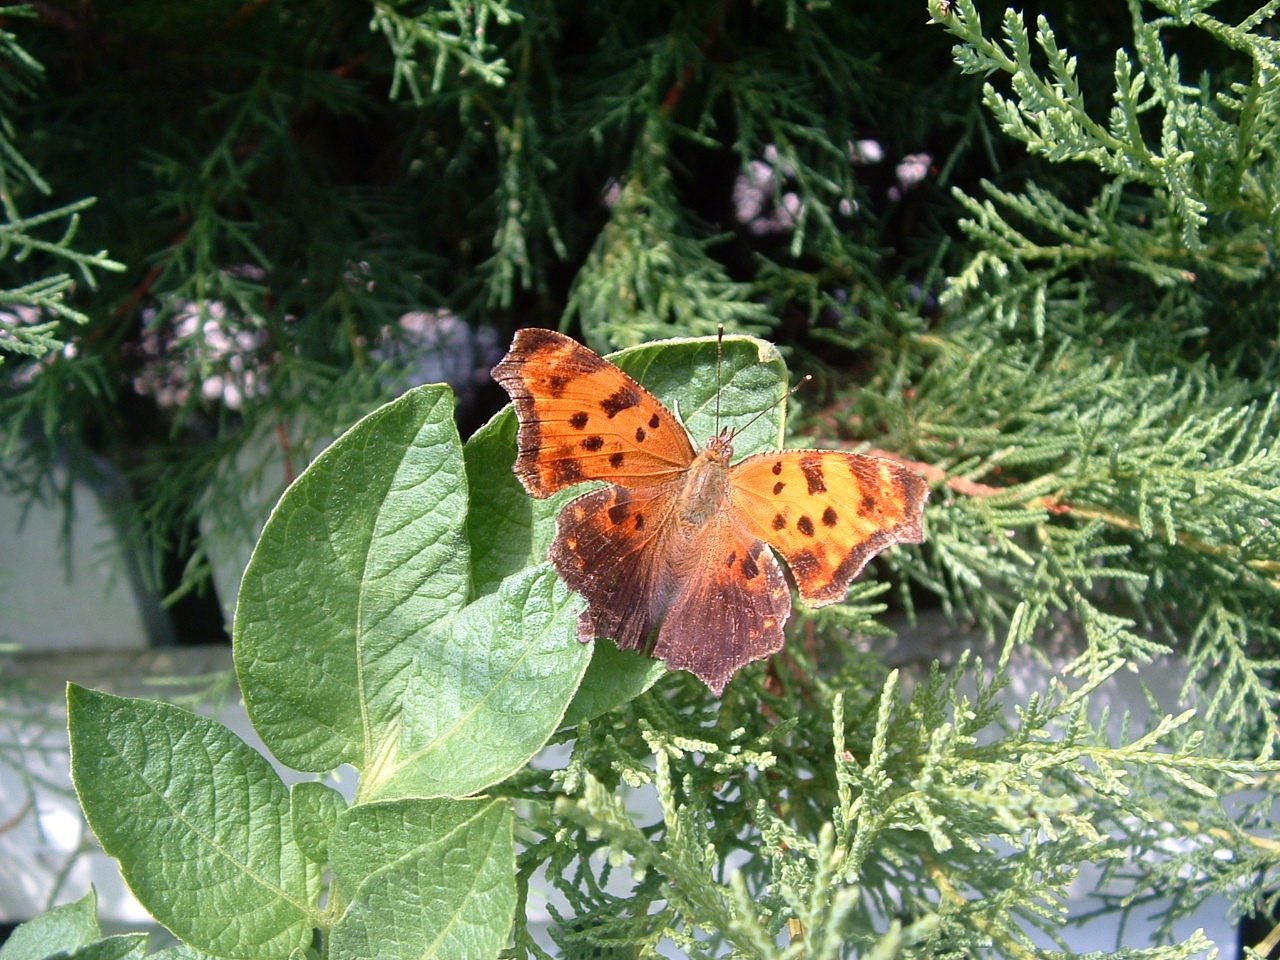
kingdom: Animalia
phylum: Arthropoda
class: Insecta
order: Lepidoptera
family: Nymphalidae
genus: Polygonia
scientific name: Polygonia comma
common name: Eastern Comma
